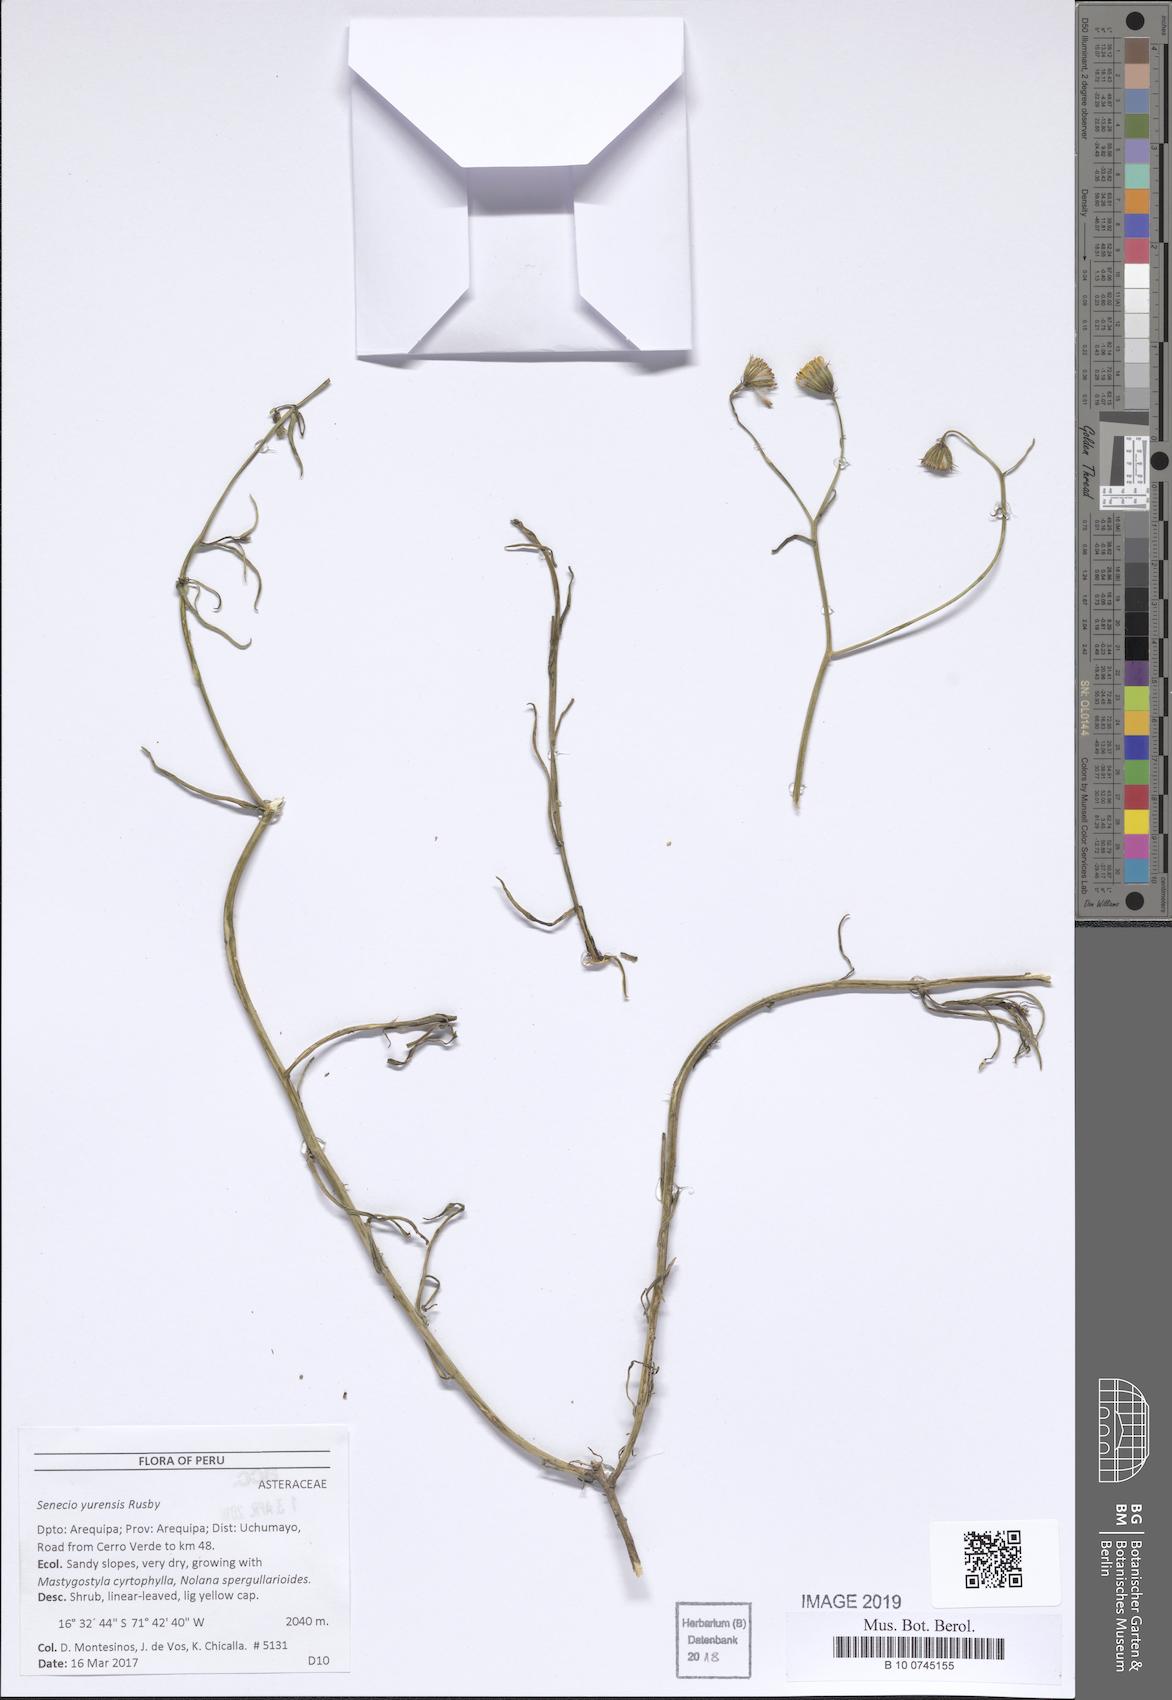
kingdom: Plantae
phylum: Tracheophyta
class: Magnoliopsida
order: Asterales
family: Asteraceae
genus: Senecio
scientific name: Senecio yurensis
